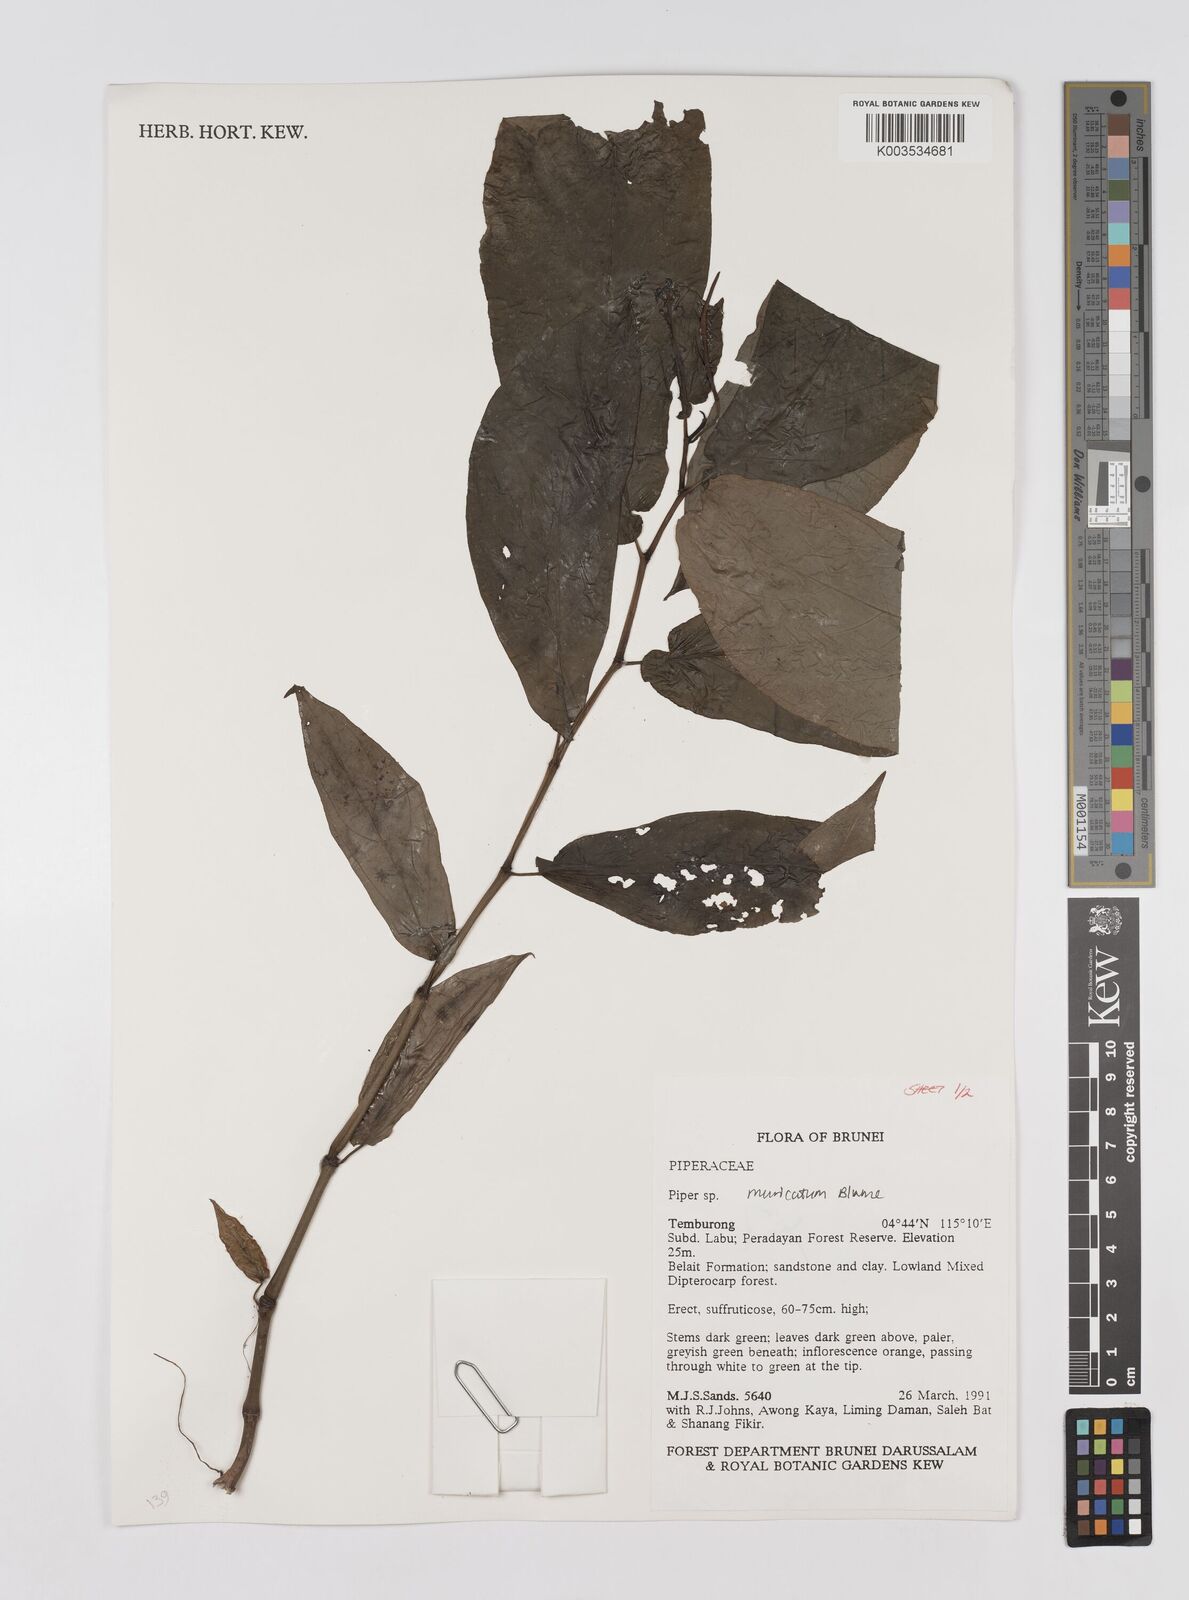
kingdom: Plantae
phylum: Tracheophyta
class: Magnoliopsida
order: Piperales
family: Piperaceae
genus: Piper
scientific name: Piper muricatum
